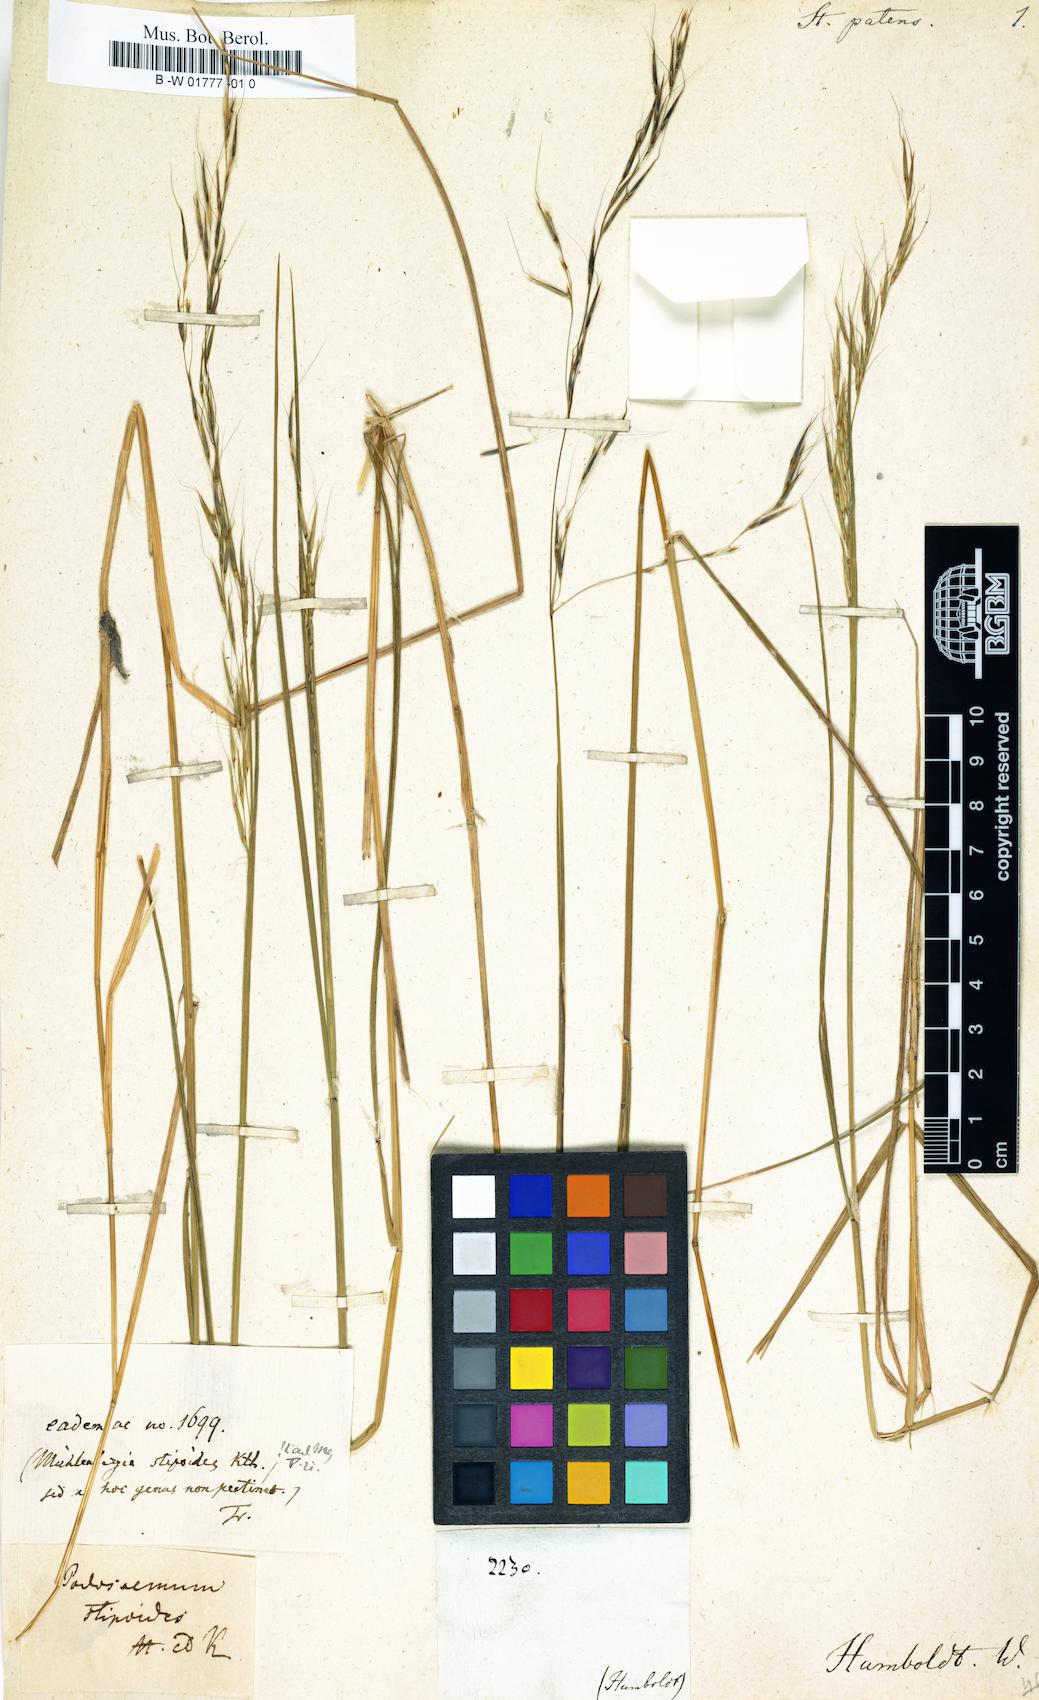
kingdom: Plantae
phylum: Tracheophyta
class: Liliopsida
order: Poales
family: Poaceae
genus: Triniochloa
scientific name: Triniochloa stipoides
